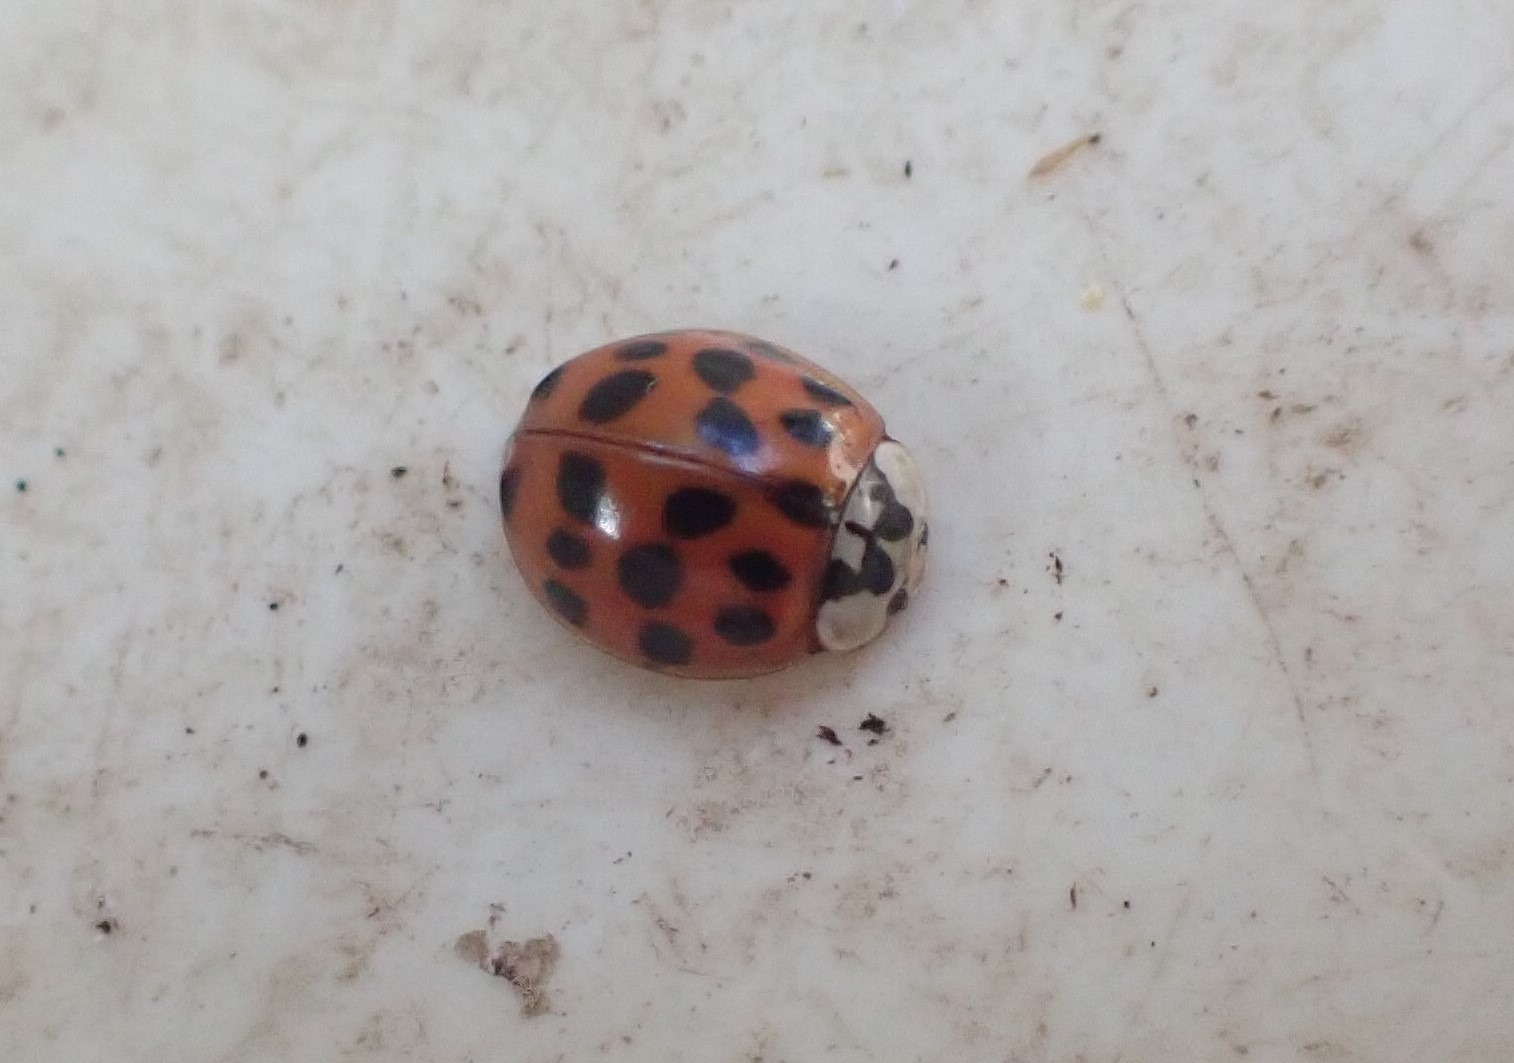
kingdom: Animalia
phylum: Arthropoda
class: Insecta
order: Coleoptera
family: Coccinellidae
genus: Harmonia
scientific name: Harmonia axyridis
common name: Harlekinmariehøne
